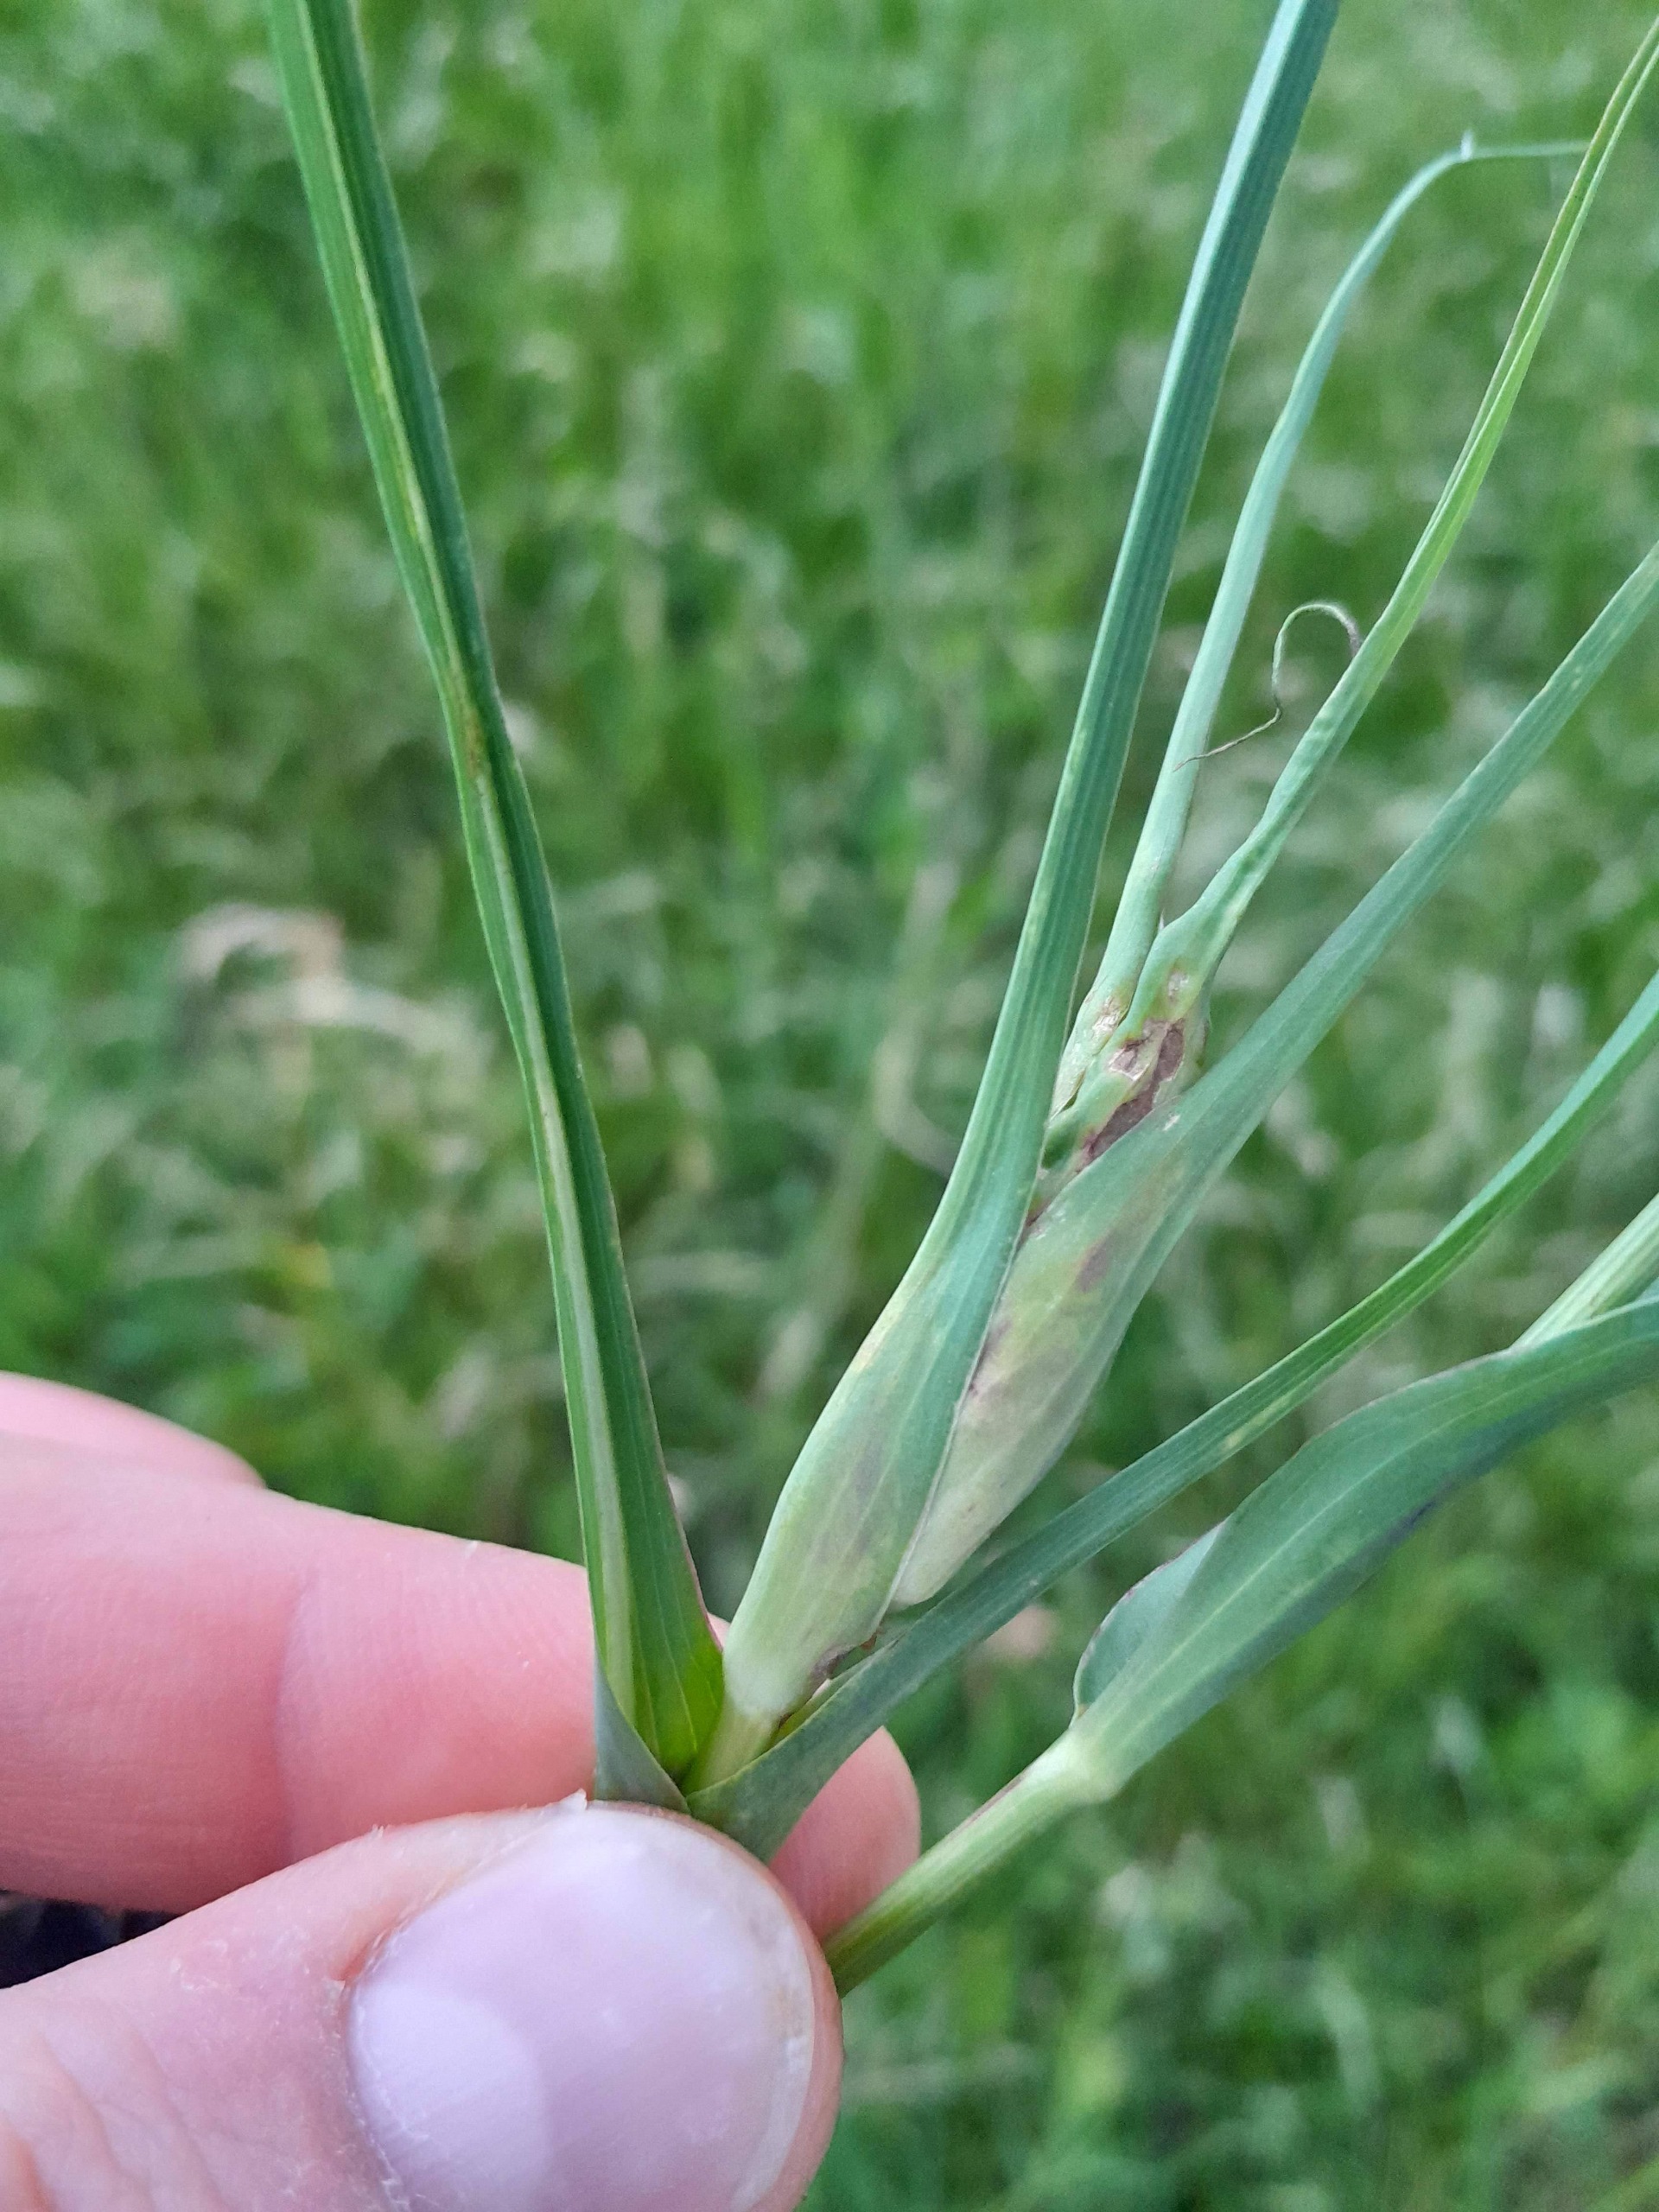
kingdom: Animalia
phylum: Arthropoda
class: Insecta
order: Diptera
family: Cecidomyiidae
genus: Contarinia
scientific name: Contarinia tragopogonis
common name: Gedeskæggalmyg
